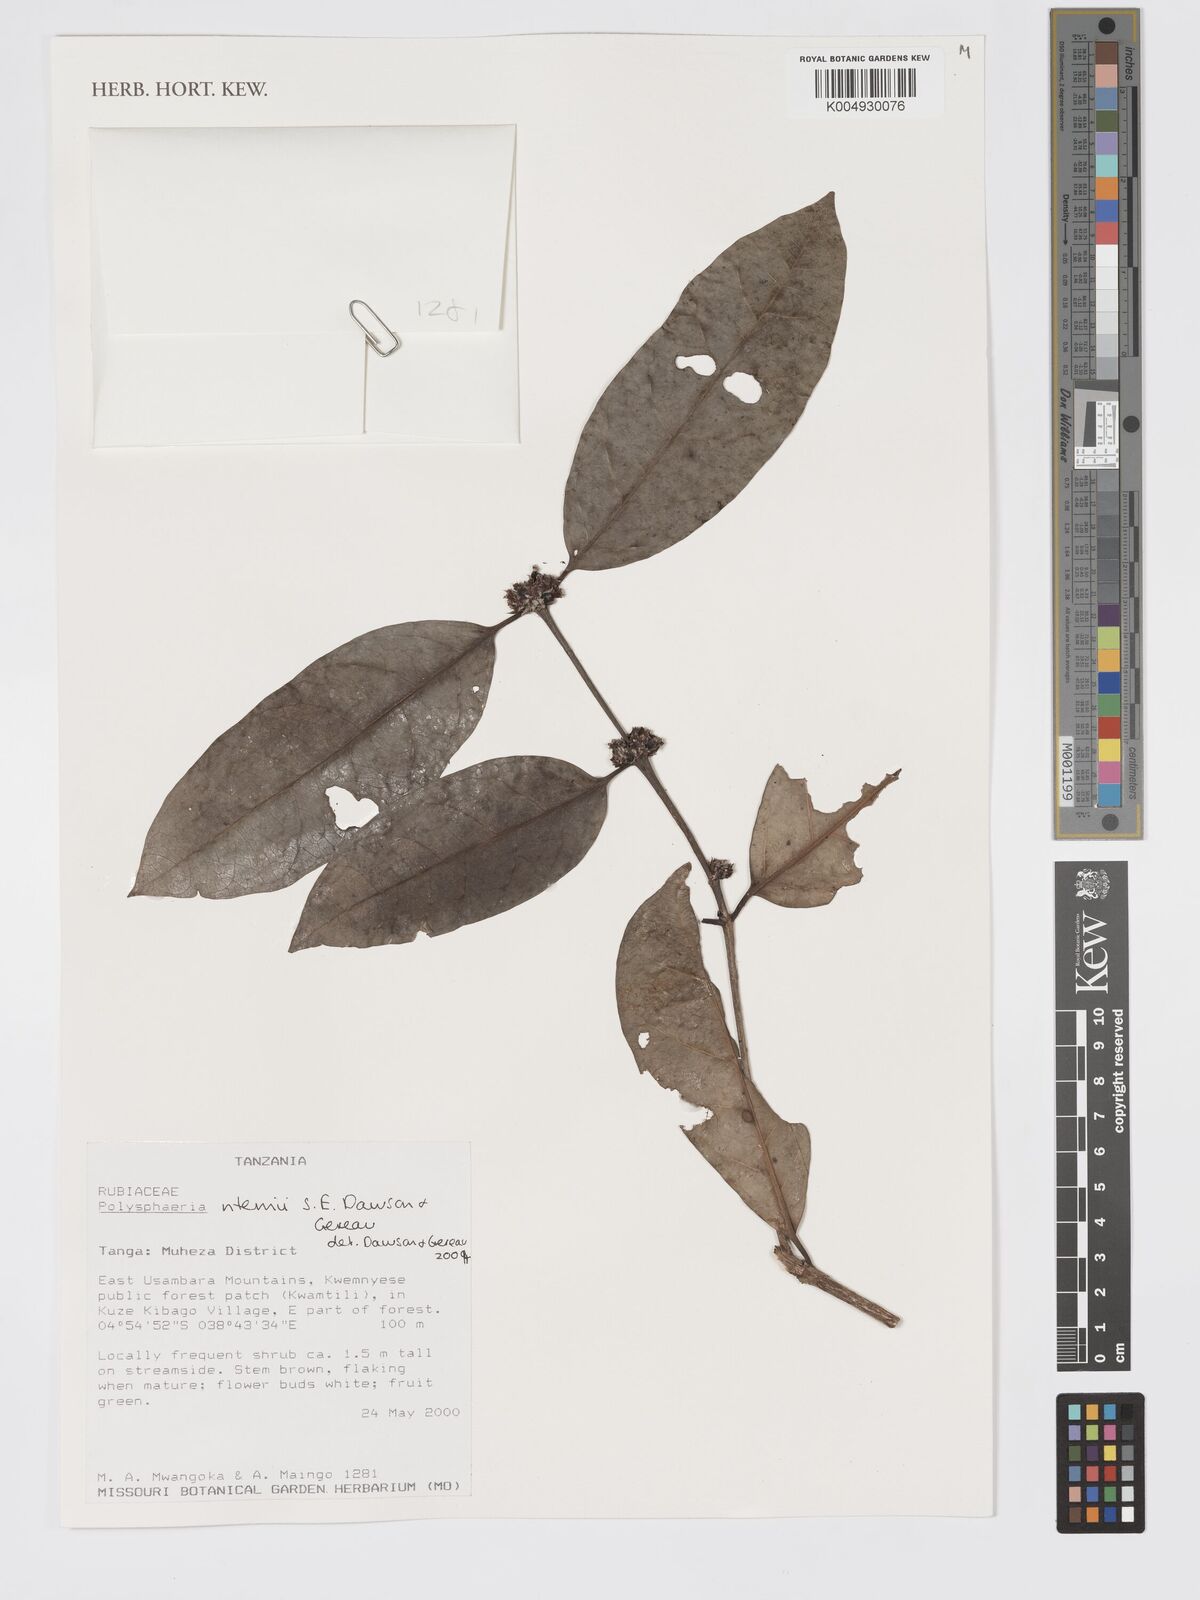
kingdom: Plantae
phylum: Tracheophyta
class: Magnoliopsida
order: Gentianales
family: Rubiaceae
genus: Polysphaeria
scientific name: Polysphaeria ntemii
